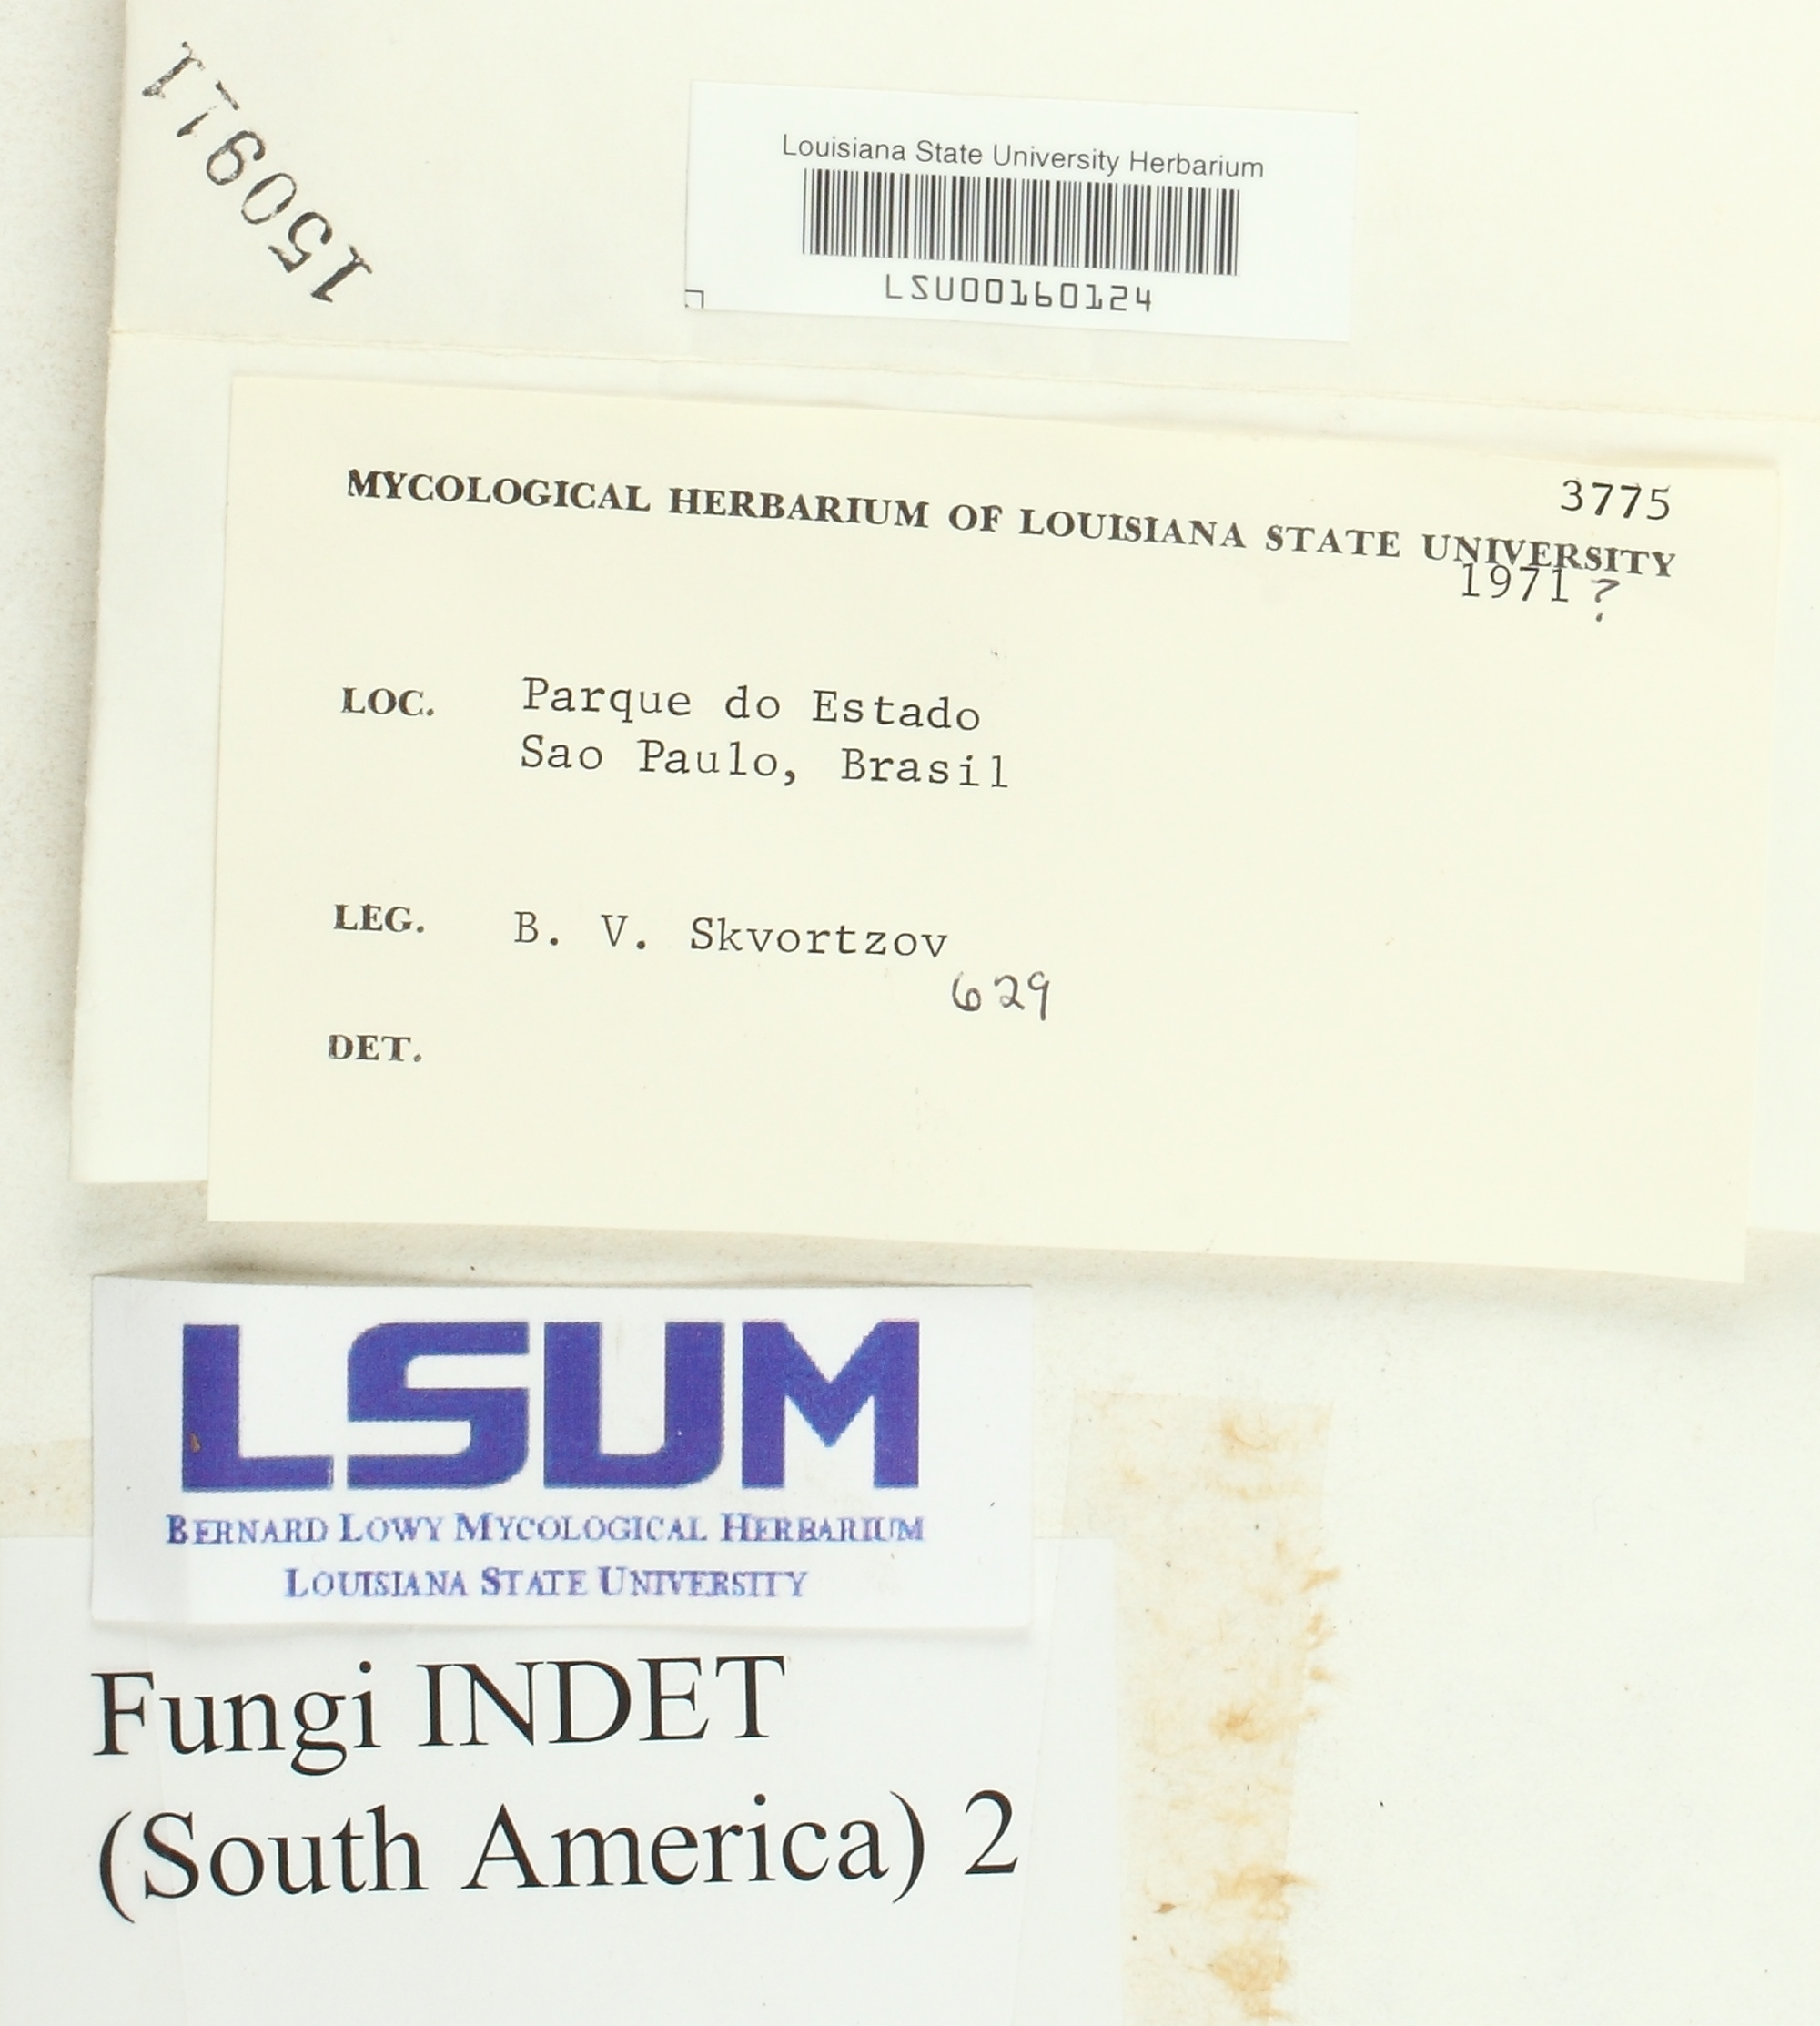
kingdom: Fungi
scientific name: Fungi
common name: Fungi
